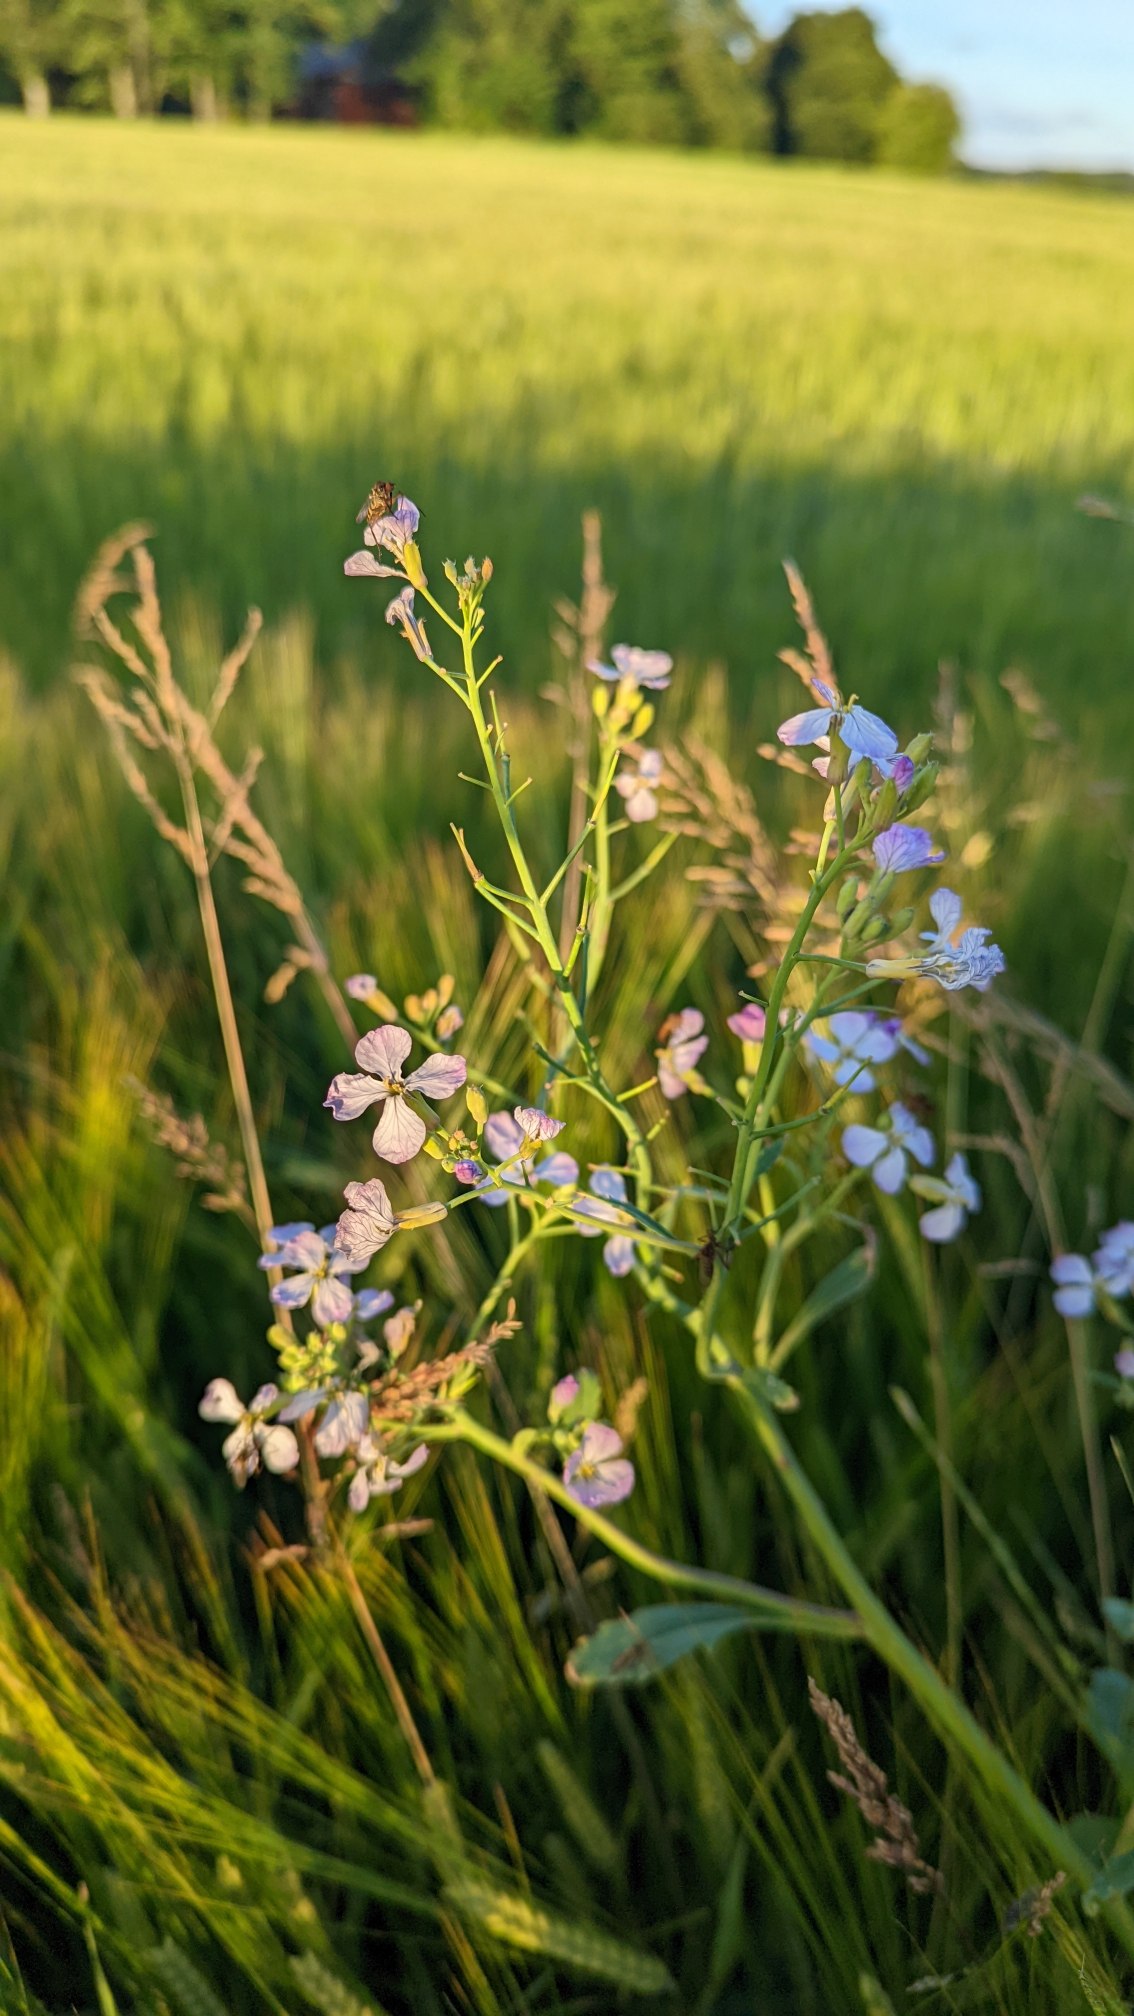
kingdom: Plantae
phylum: Tracheophyta
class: Magnoliopsida
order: Brassicales
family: Brassicaceae
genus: Raphanus
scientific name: Raphanus sativus
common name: Olie-ræddike
